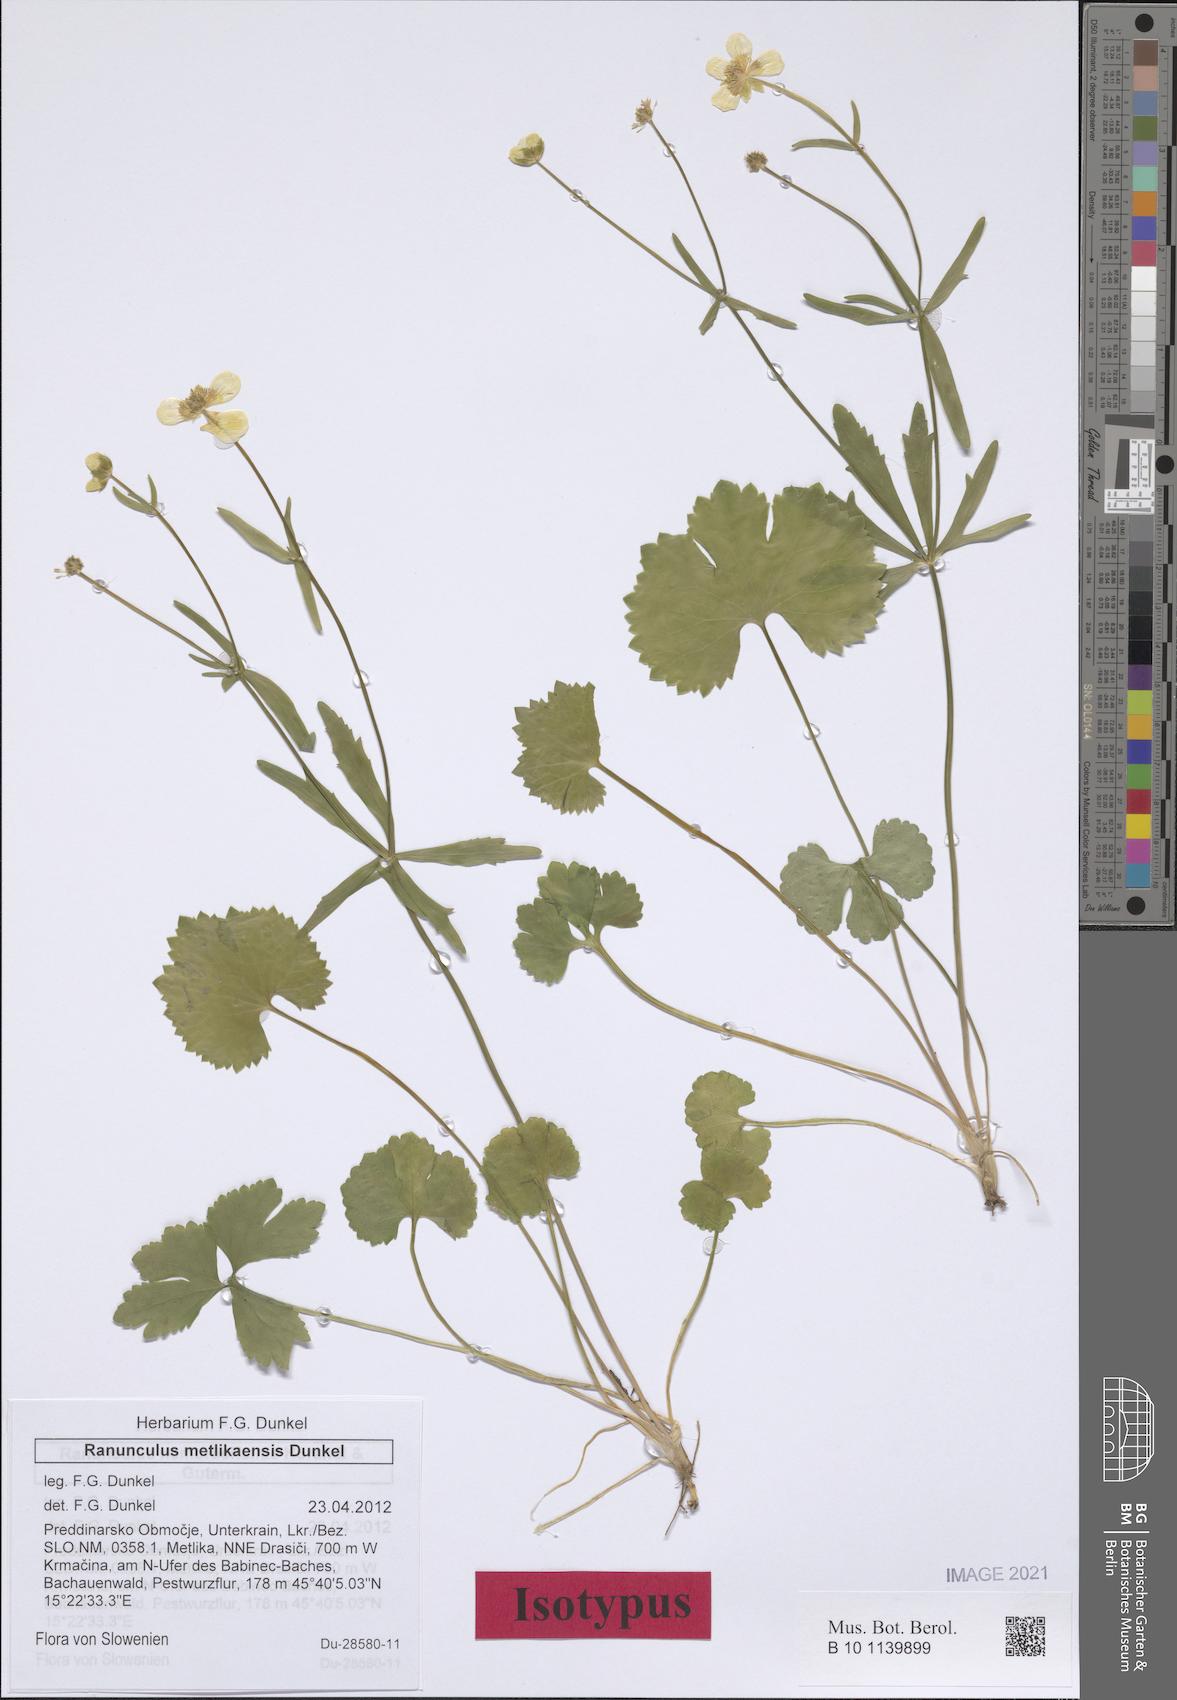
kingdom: Plantae
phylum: Tracheophyta
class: Magnoliopsida
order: Ranunculales
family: Ranunculaceae
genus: Ranunculus
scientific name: Ranunculus metlikaensis
